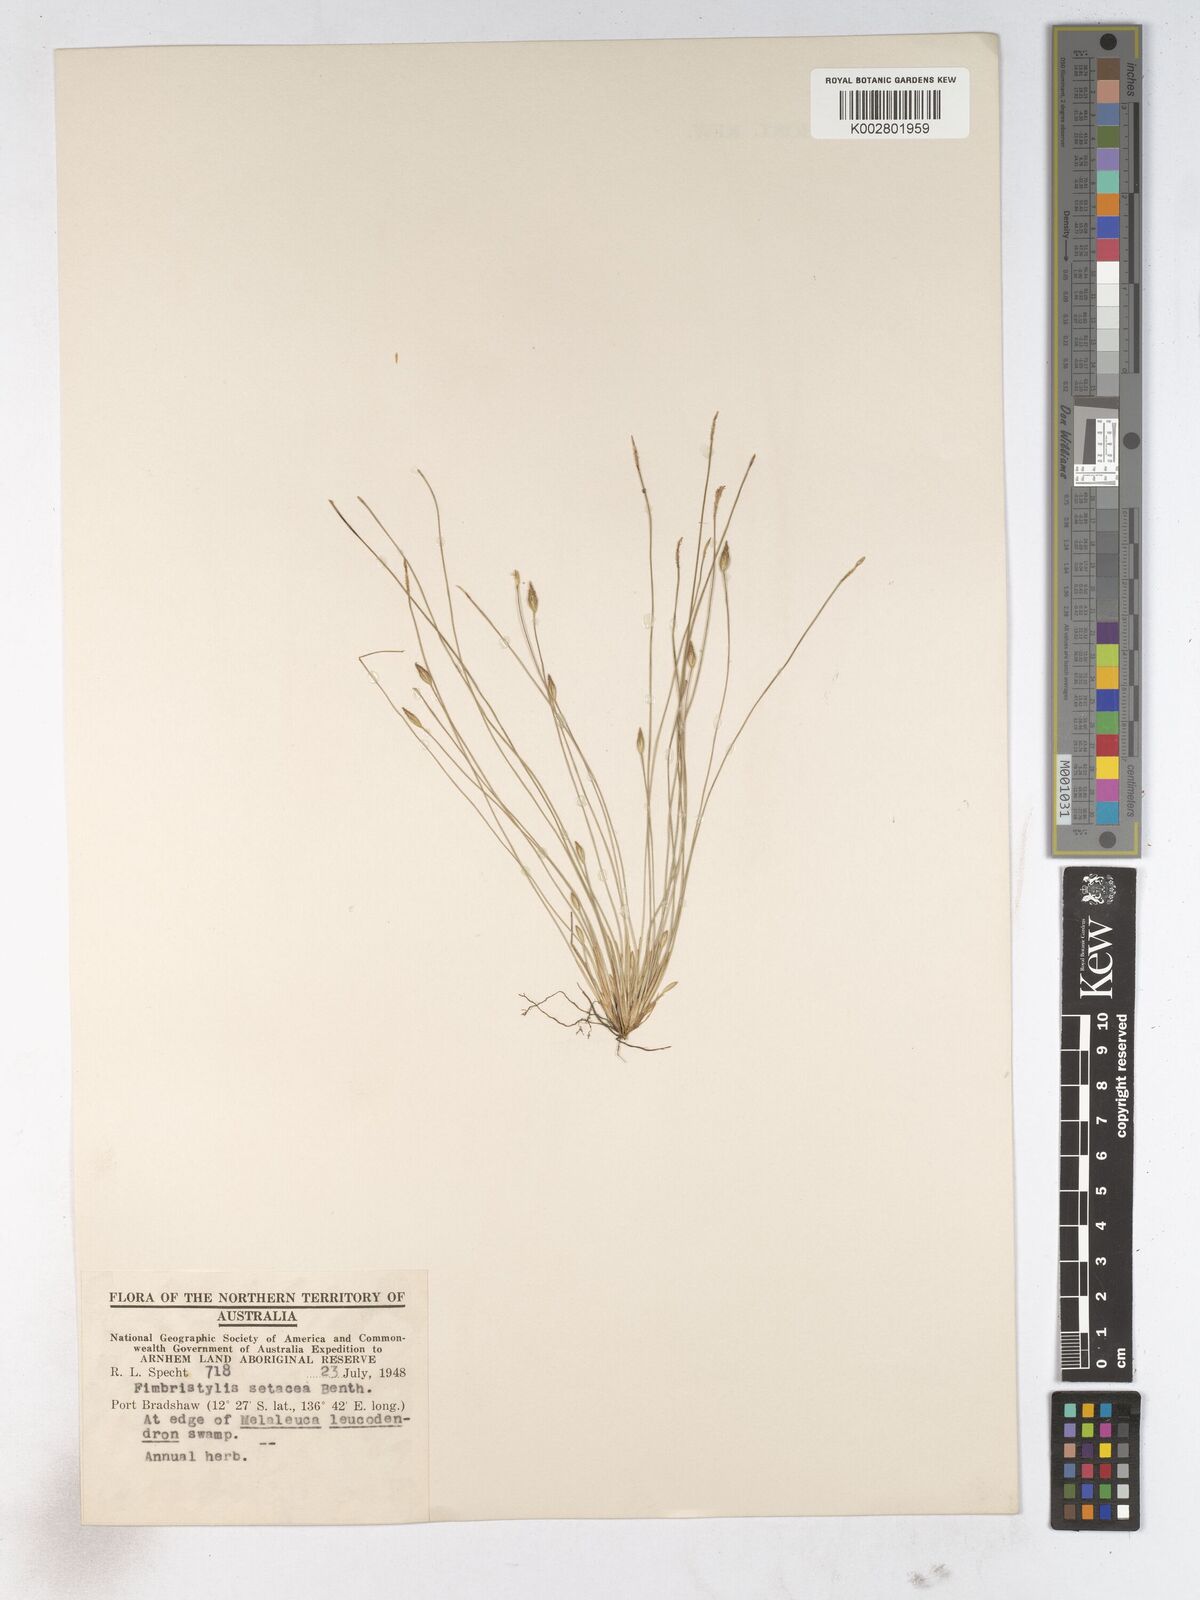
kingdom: Plantae
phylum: Tracheophyta
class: Liliopsida
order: Poales
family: Cyperaceae
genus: Fimbristylis
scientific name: Fimbristylis acicularis
